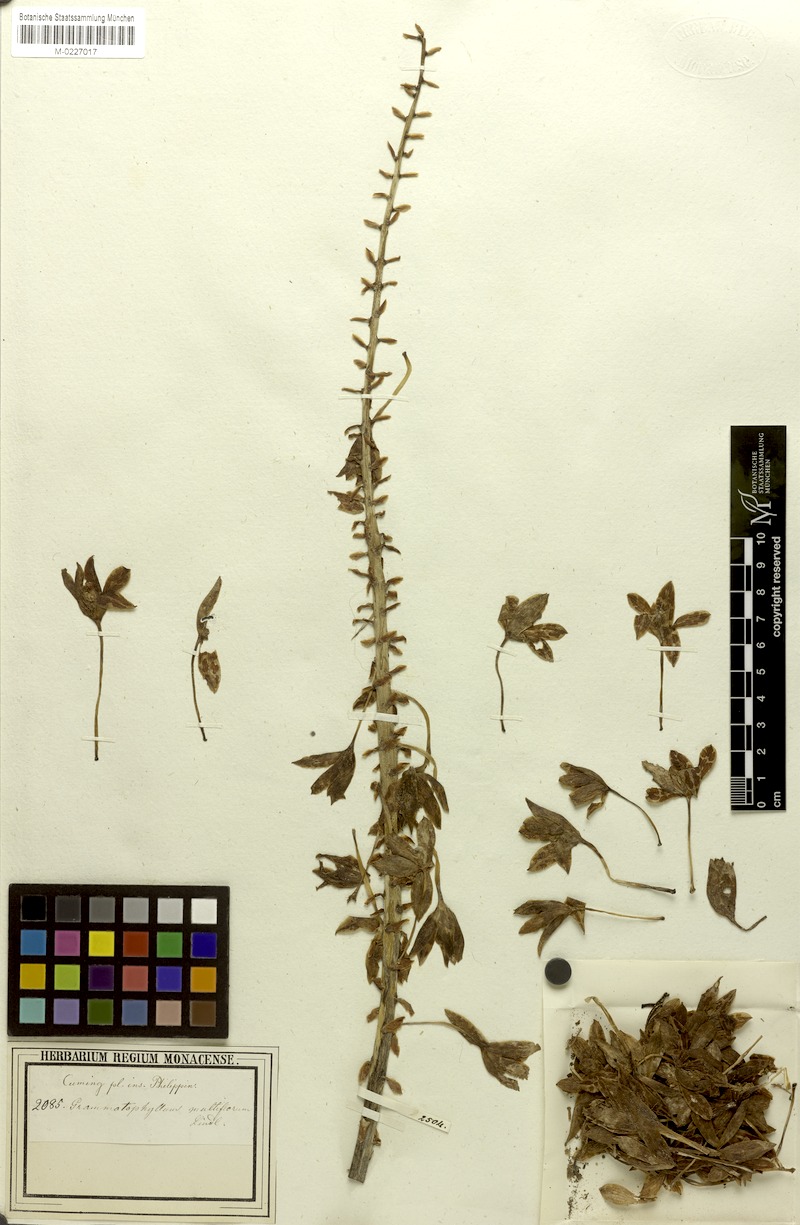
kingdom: Plantae
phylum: Tracheophyta
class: Liliopsida
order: Asparagales
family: Orchidaceae
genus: Grammatophyllum
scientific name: Grammatophyllum multiflorum
